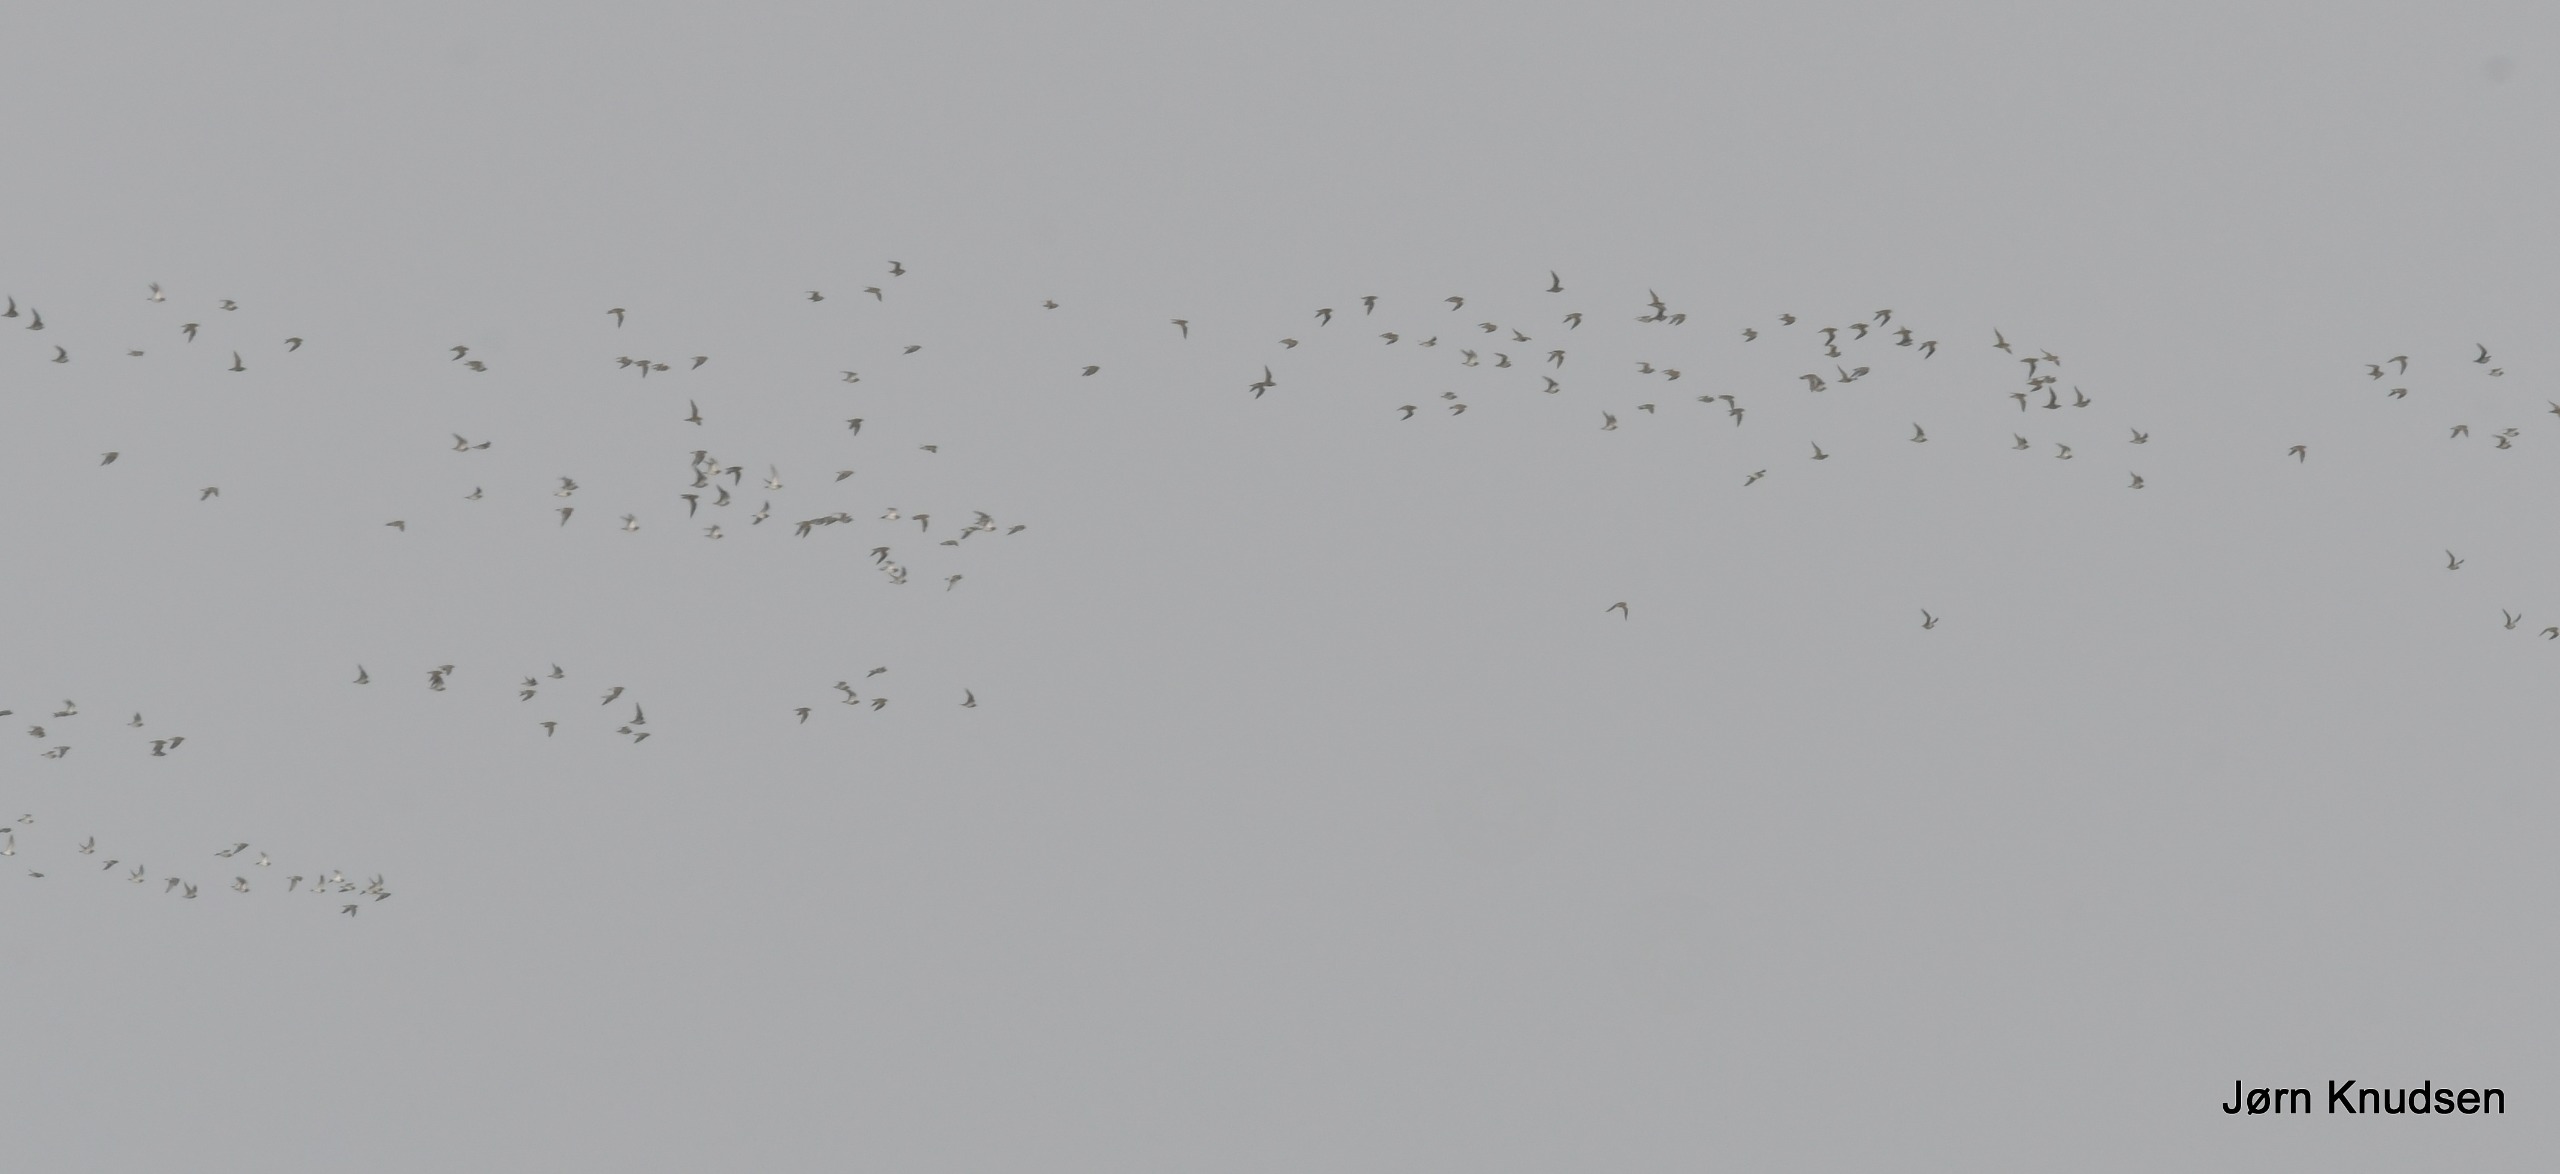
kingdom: Animalia
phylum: Chordata
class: Aves
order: Charadriiformes
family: Charadriidae
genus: Pluvialis
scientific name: Pluvialis apricaria
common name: Hjejle
